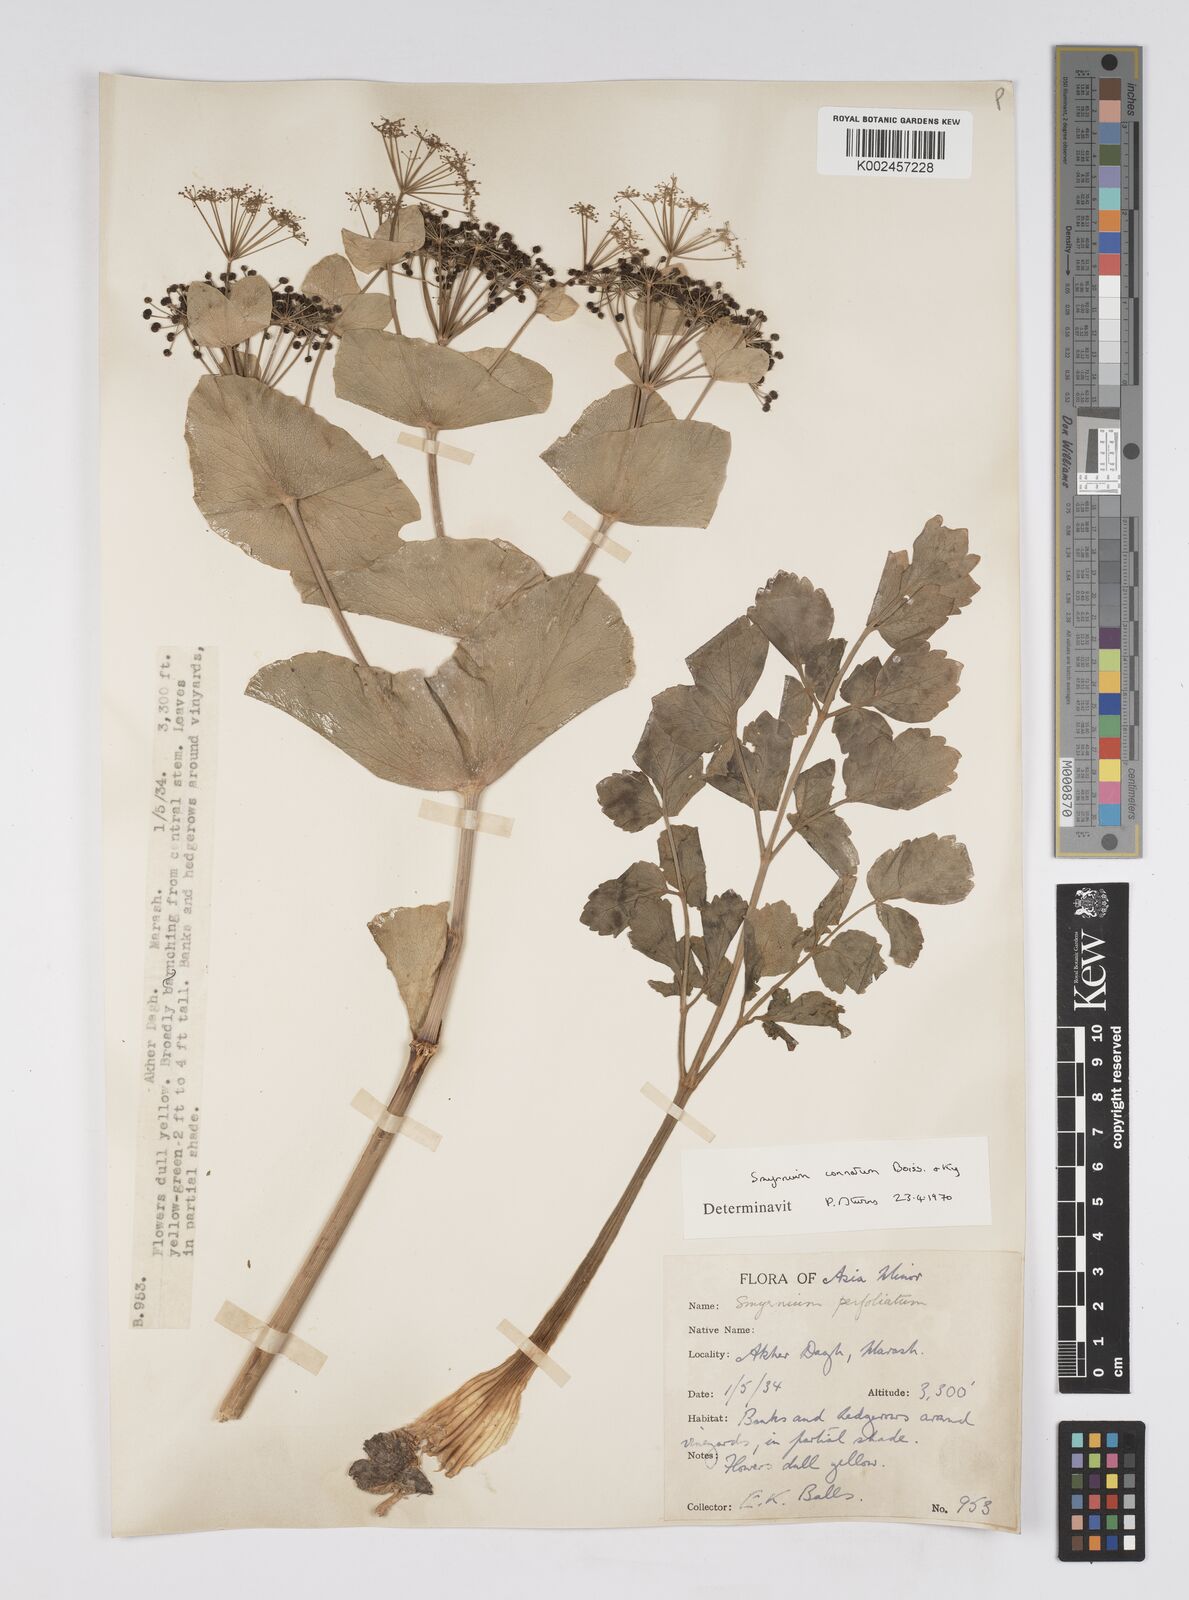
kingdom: Plantae
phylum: Tracheophyta
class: Magnoliopsida
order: Apiales
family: Apiaceae
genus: Smyrnium
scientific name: Smyrnium connatum
